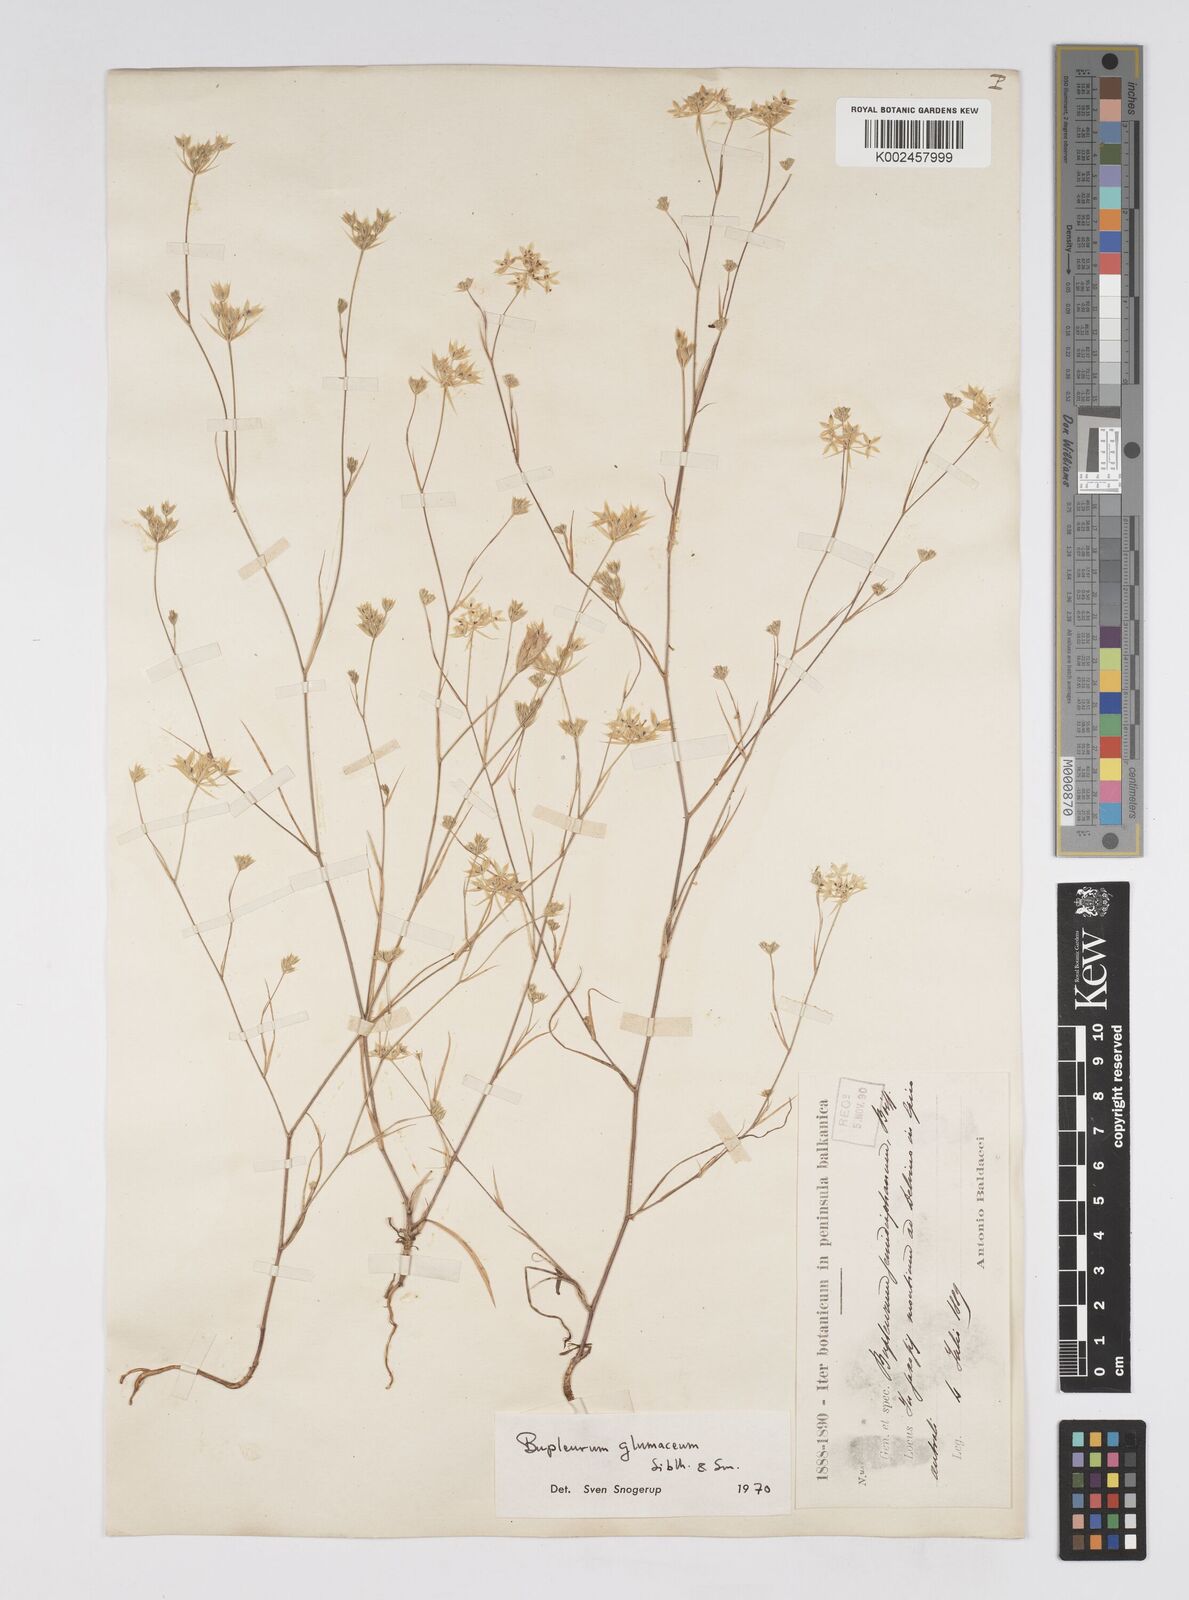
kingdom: Plantae
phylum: Tracheophyta
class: Magnoliopsida
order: Apiales
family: Apiaceae
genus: Bupleurum
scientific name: Bupleurum glumaceum
